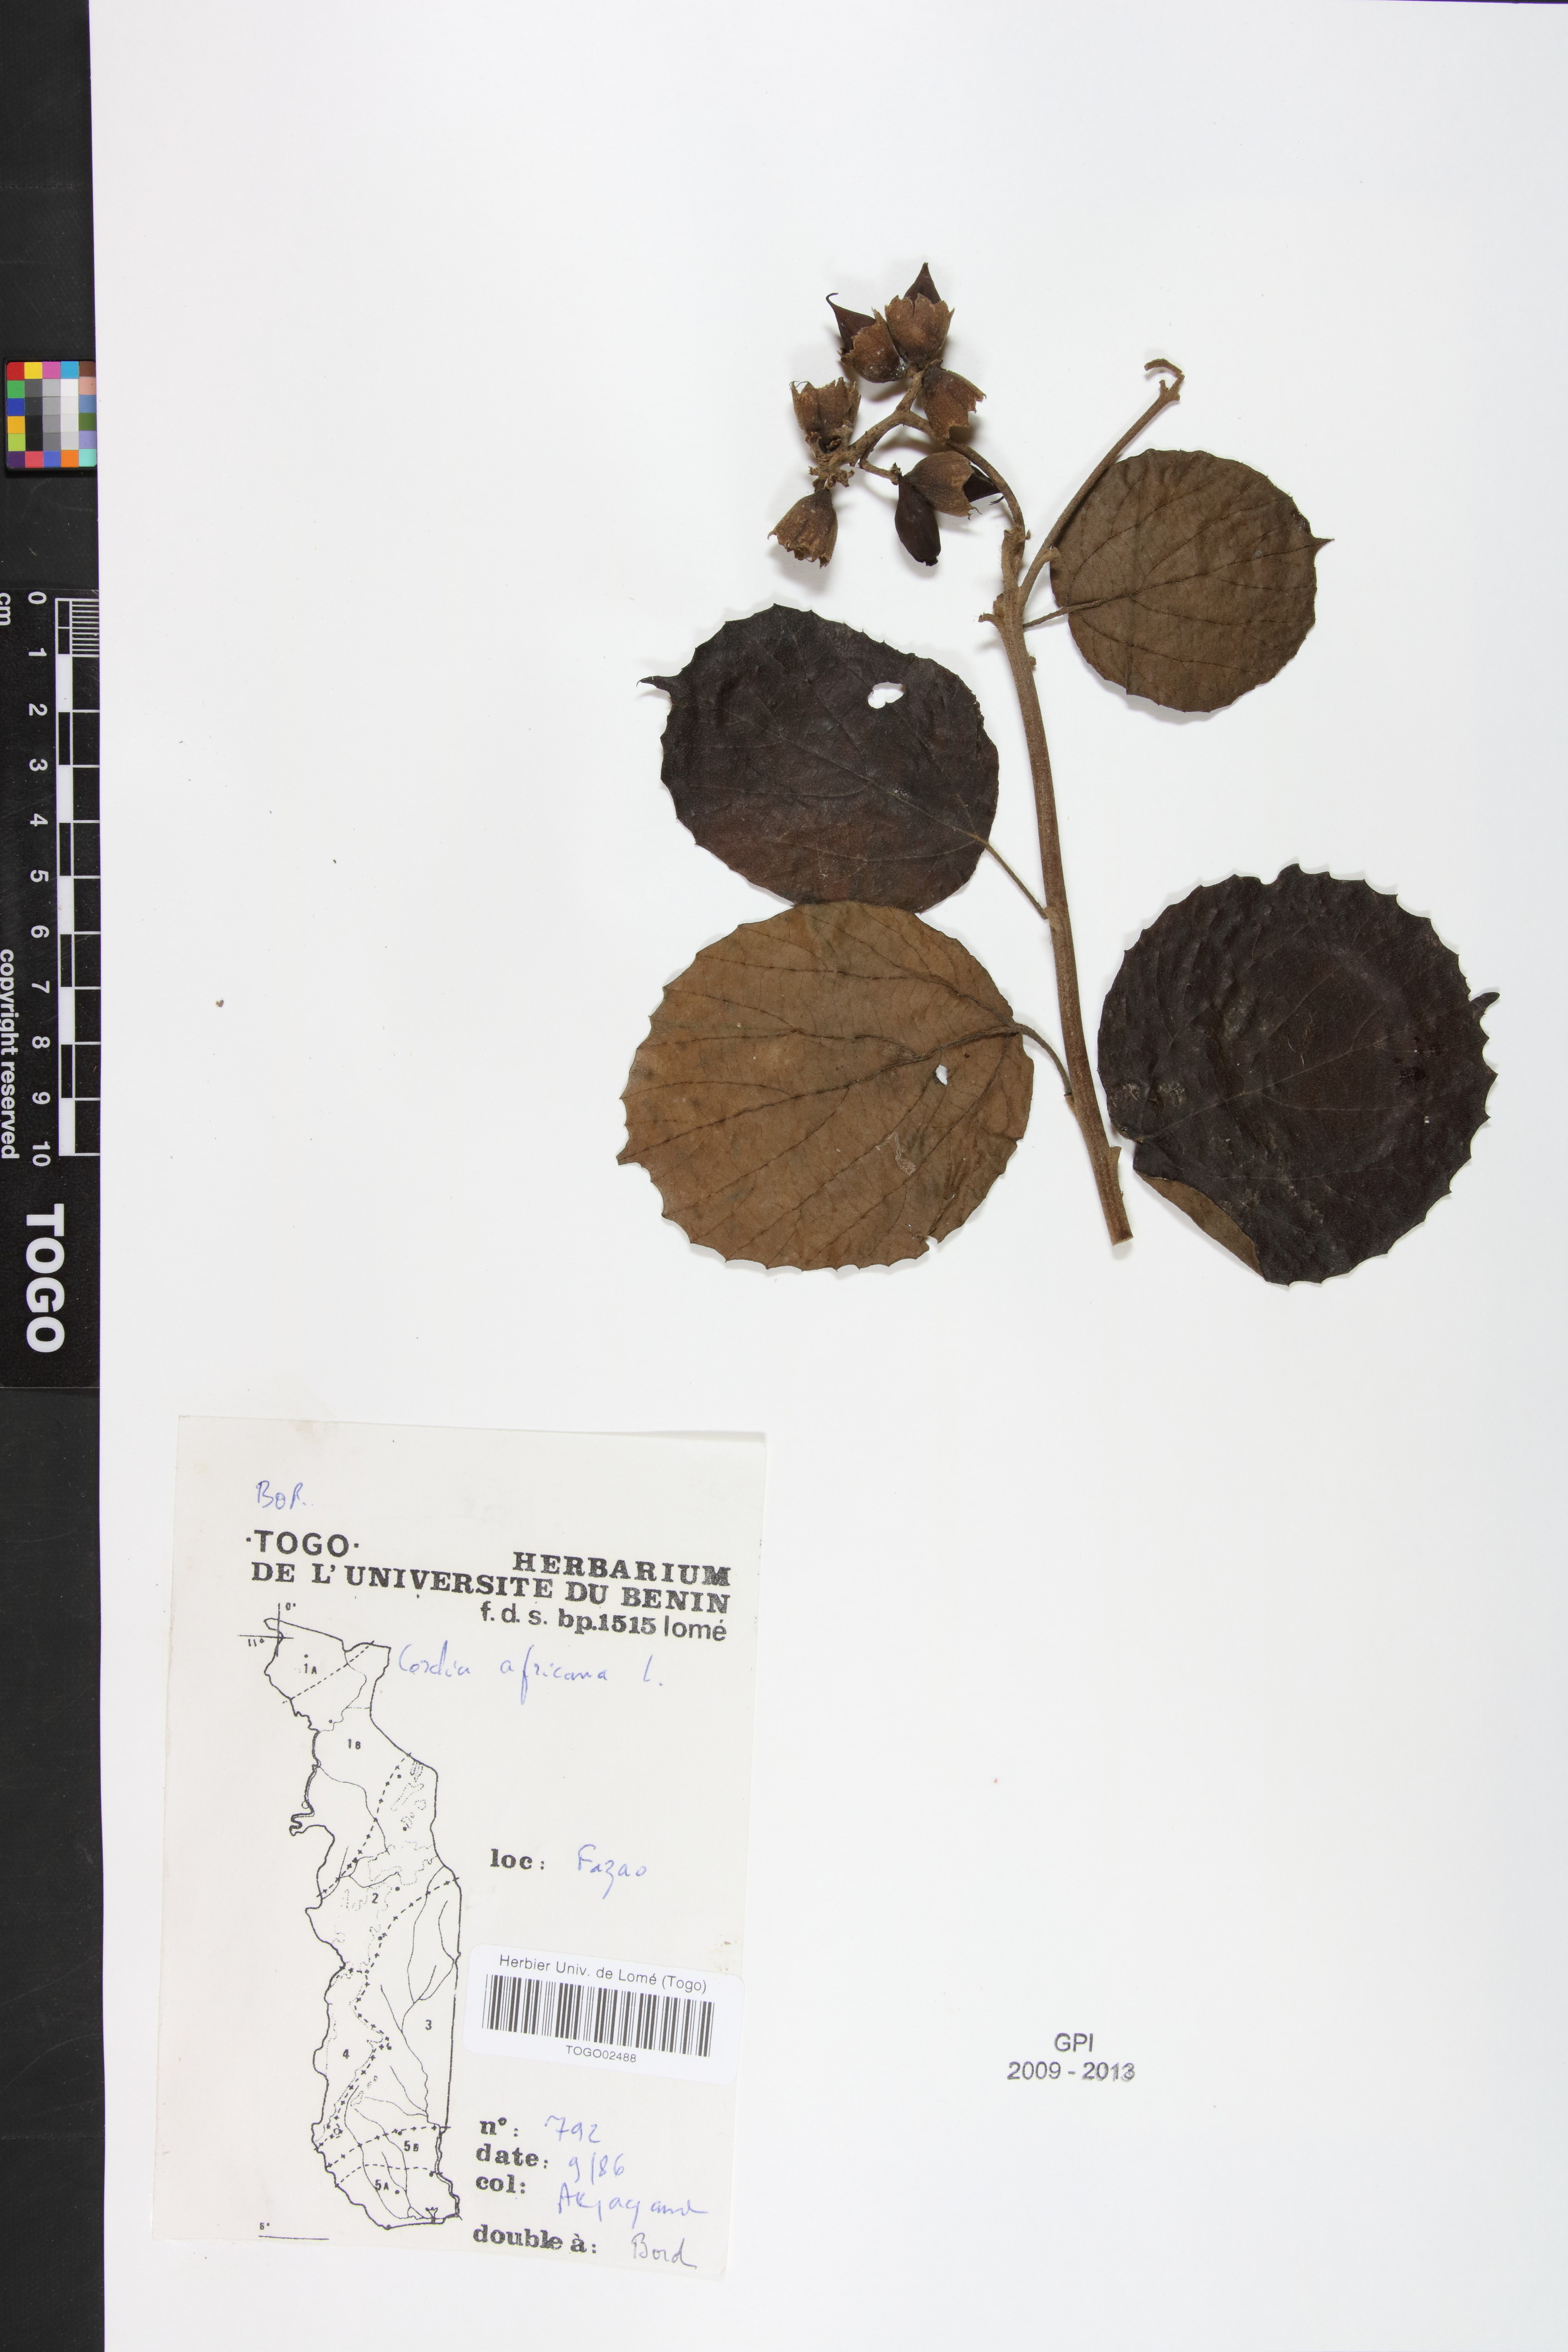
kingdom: Plantae
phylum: Tracheophyta
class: Magnoliopsida
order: Boraginales
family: Cordiaceae
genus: Cordia
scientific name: Cordia africana
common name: Large-leaved cordia
